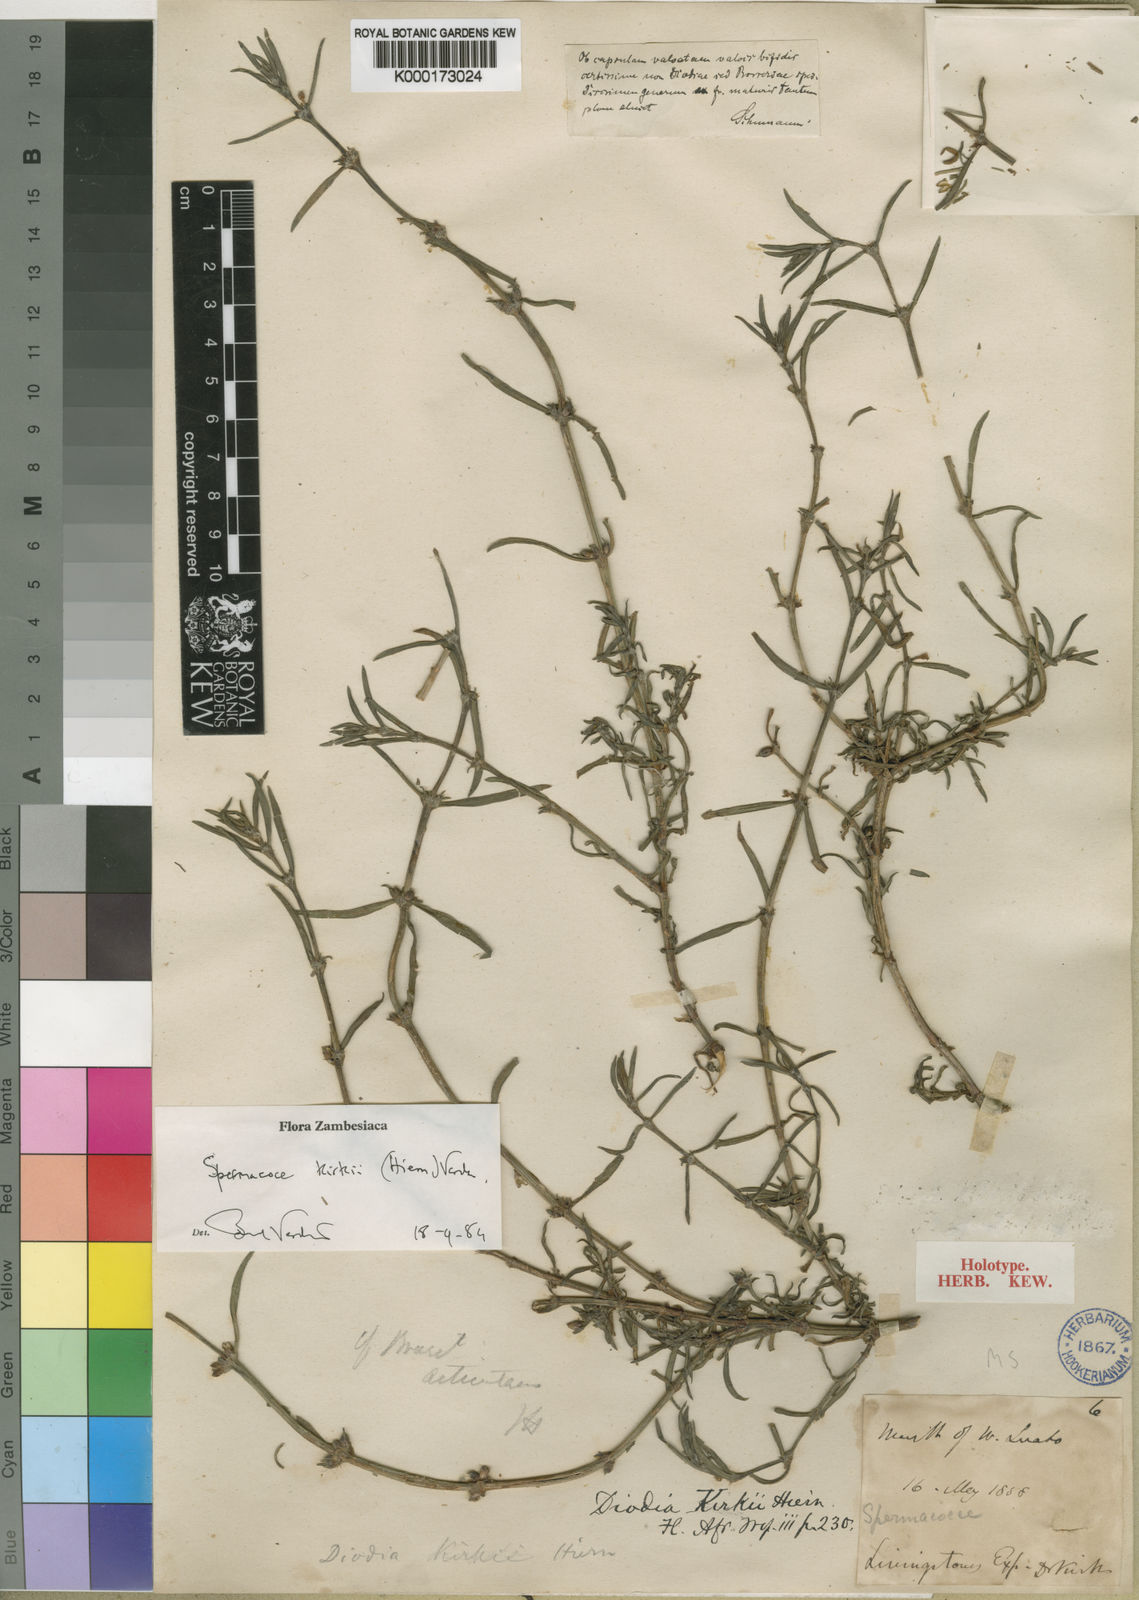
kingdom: Plantae
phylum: Tracheophyta
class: Magnoliopsida
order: Gentianales
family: Rubiaceae
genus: Spermacoce
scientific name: Spermacoce kirkii
